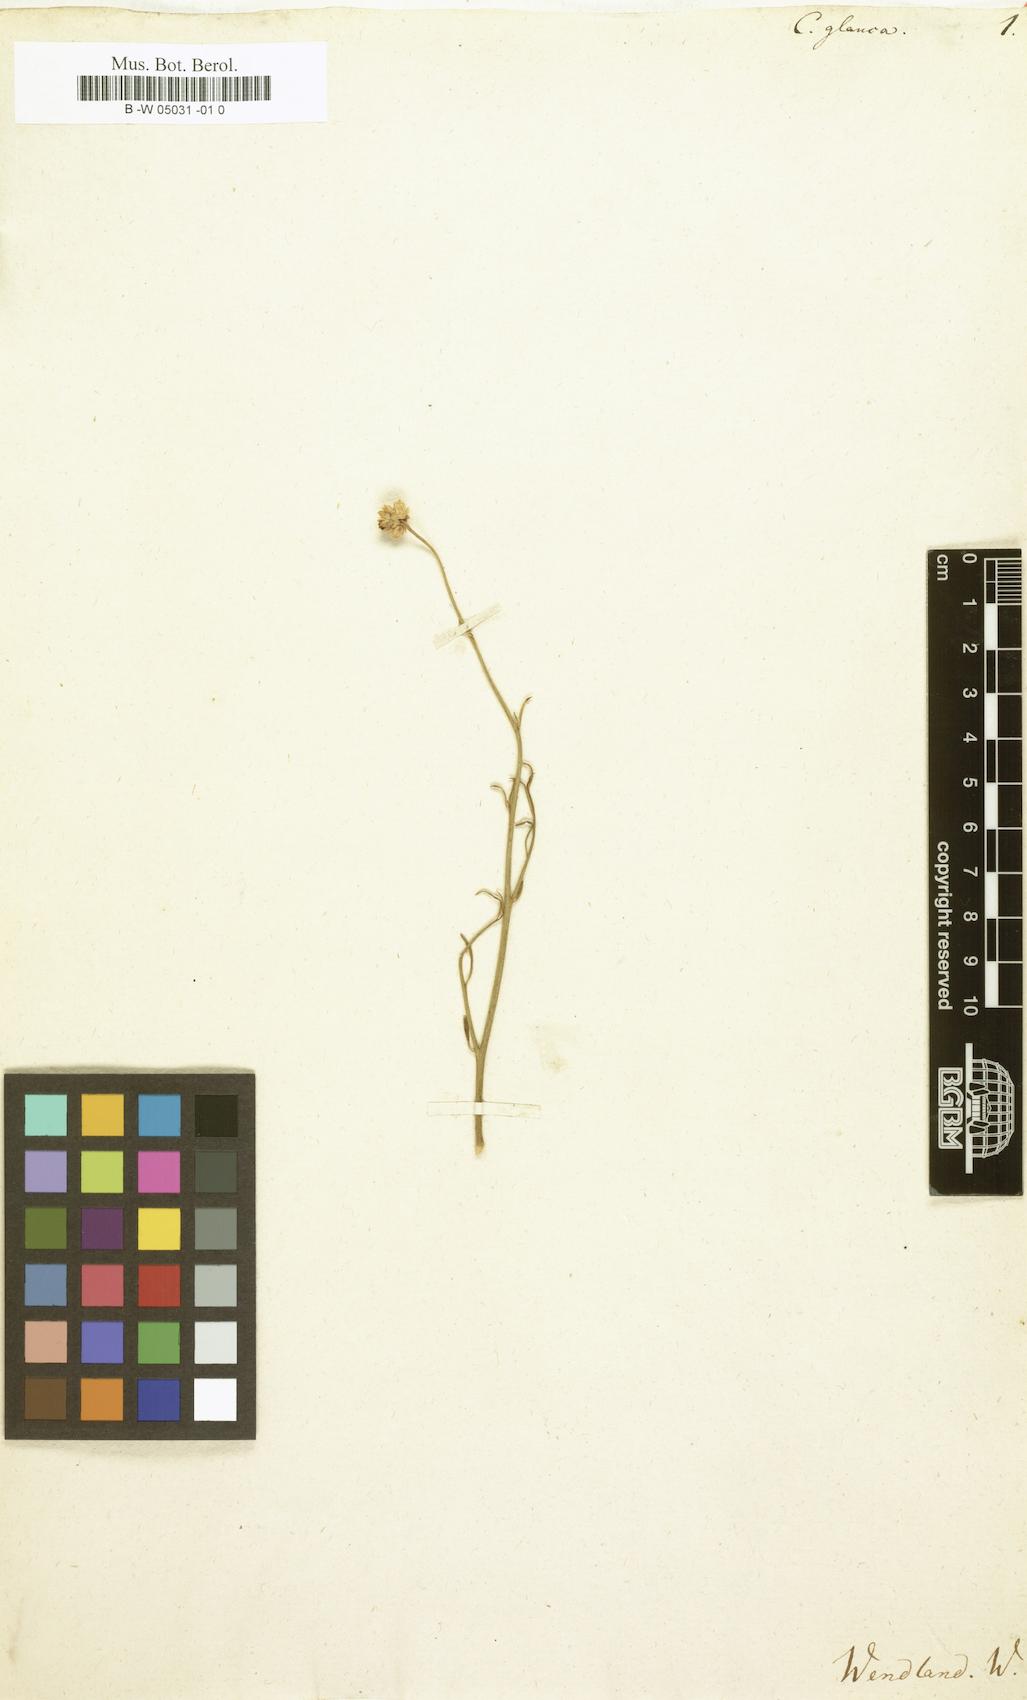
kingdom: Plantae
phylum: Tracheophyta
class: Magnoliopsida
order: Caryophyllales
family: Amaranthaceae
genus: Hermbstaedtia
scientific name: Hermbstaedtia glauca
